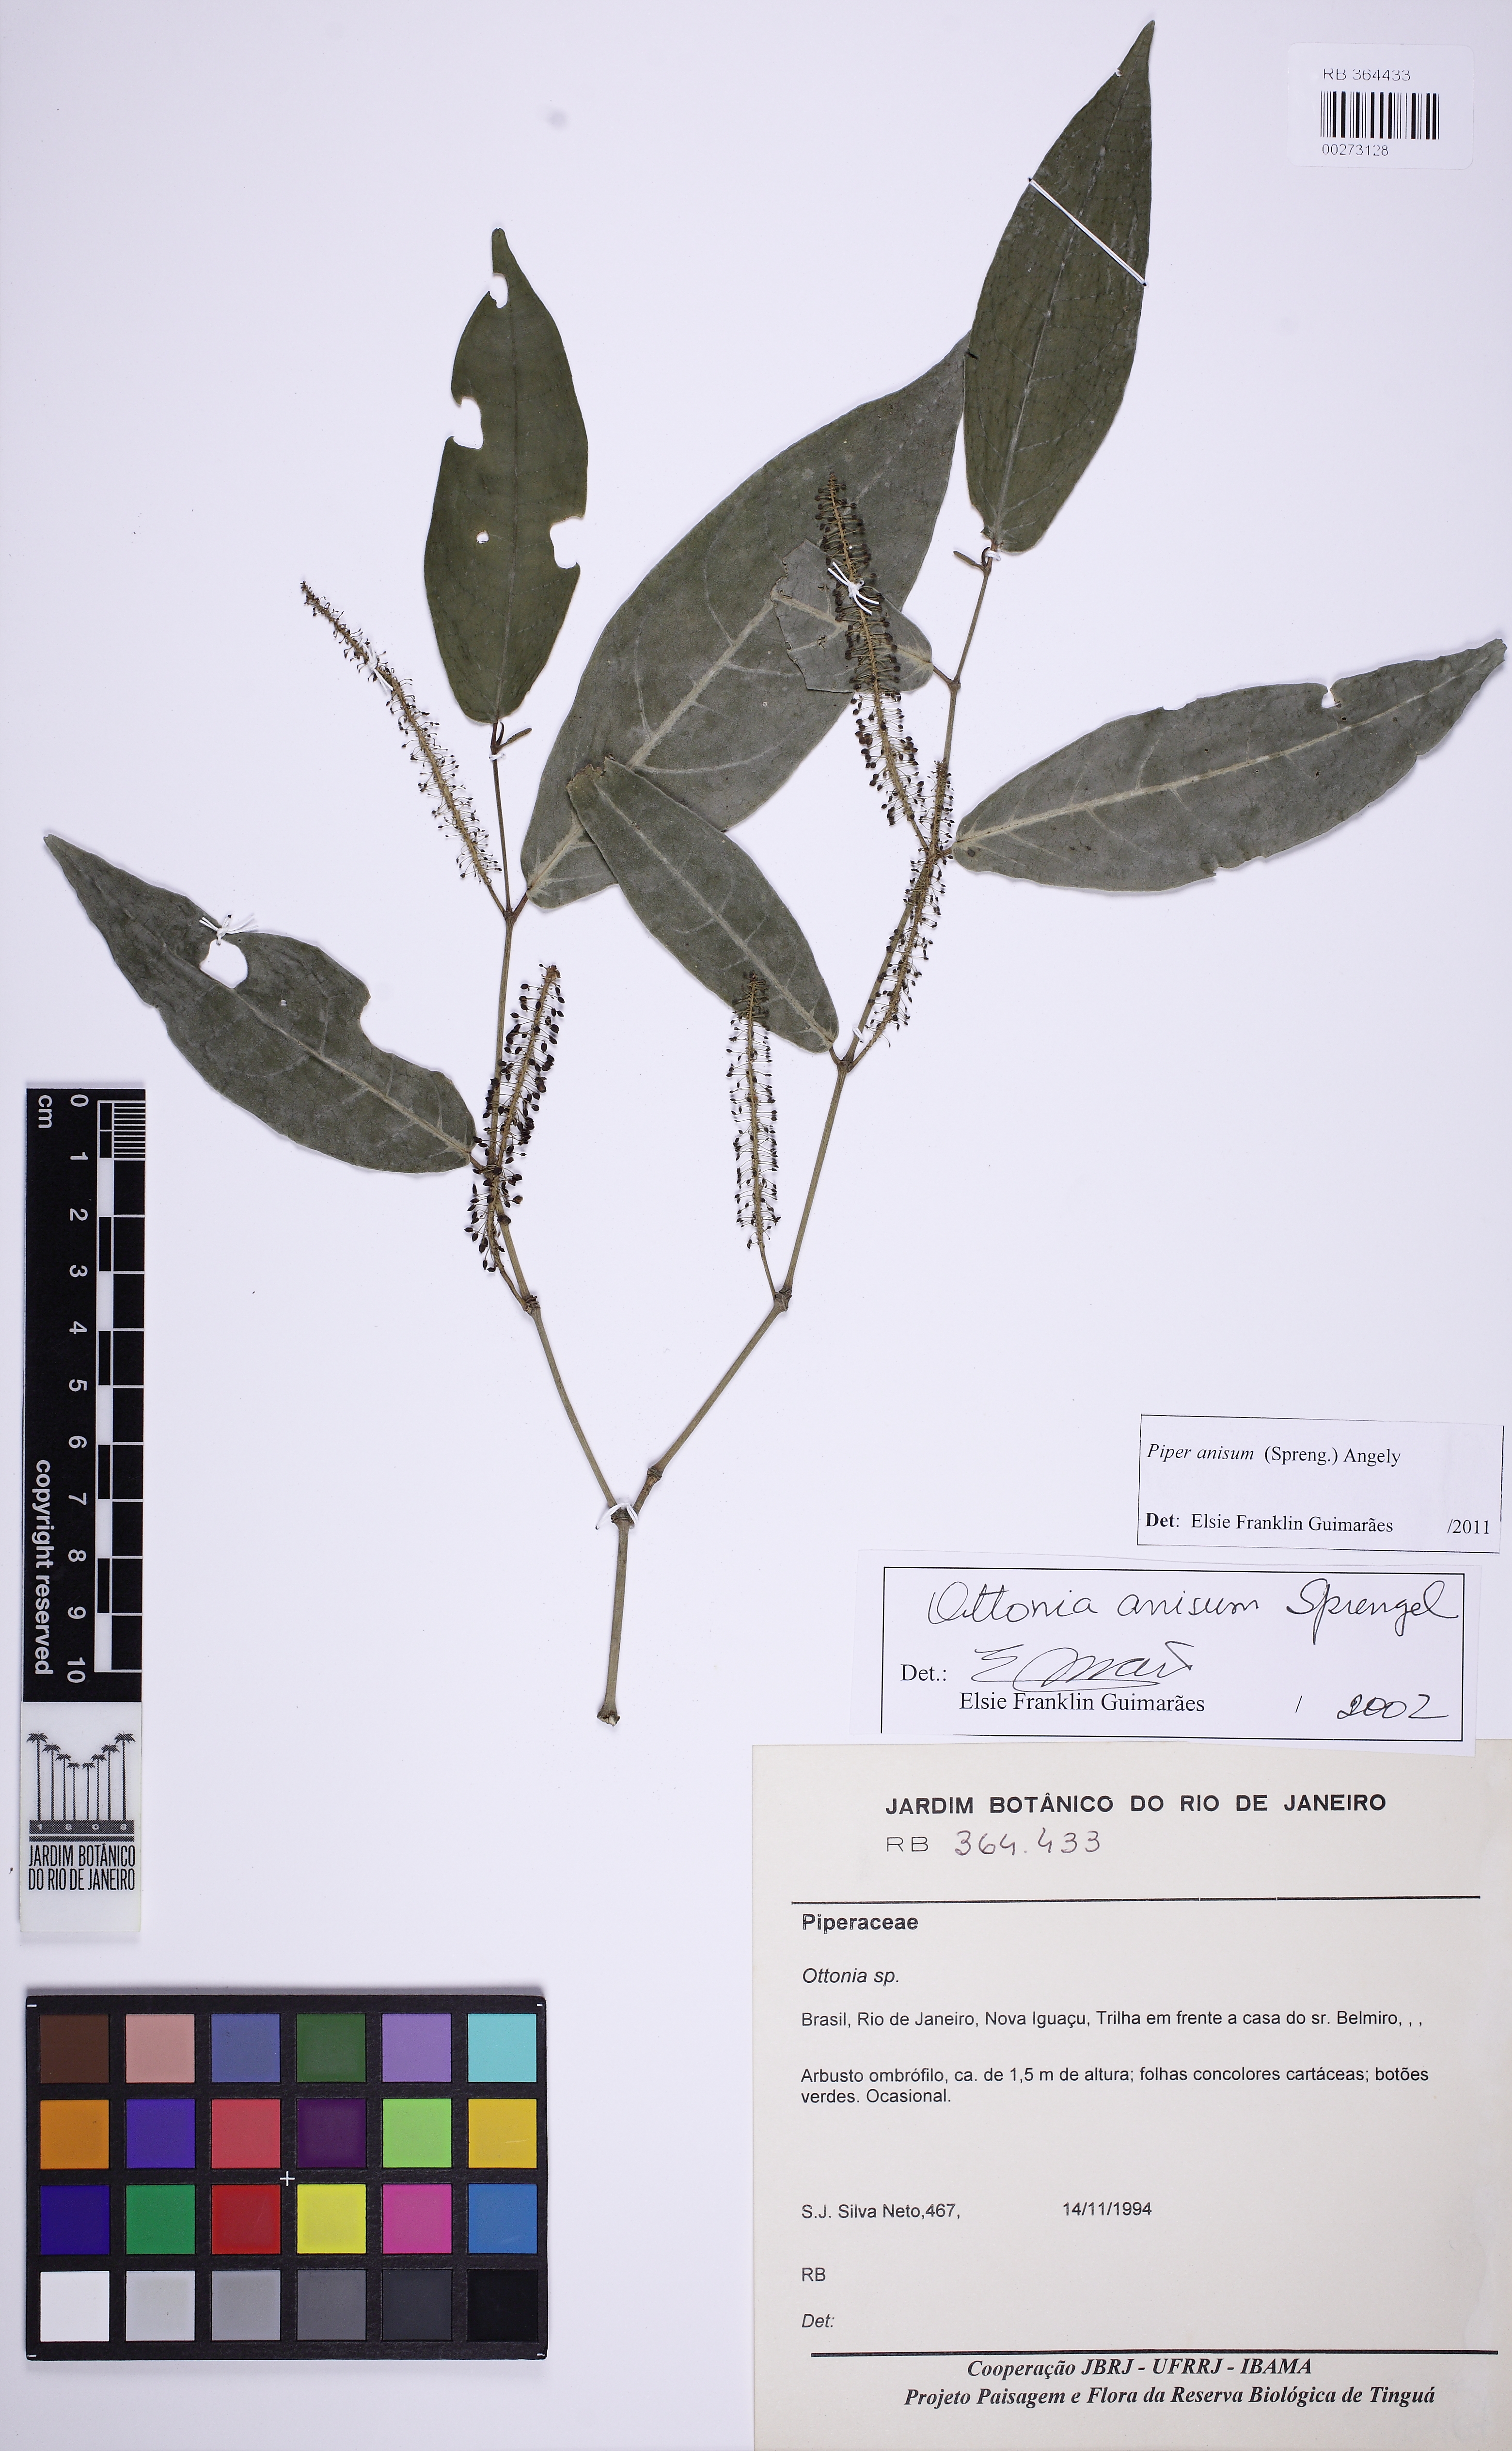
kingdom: Plantae
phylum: Tracheophyta
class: Magnoliopsida
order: Piperales
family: Piperaceae
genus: Piper
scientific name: Piper anisum
